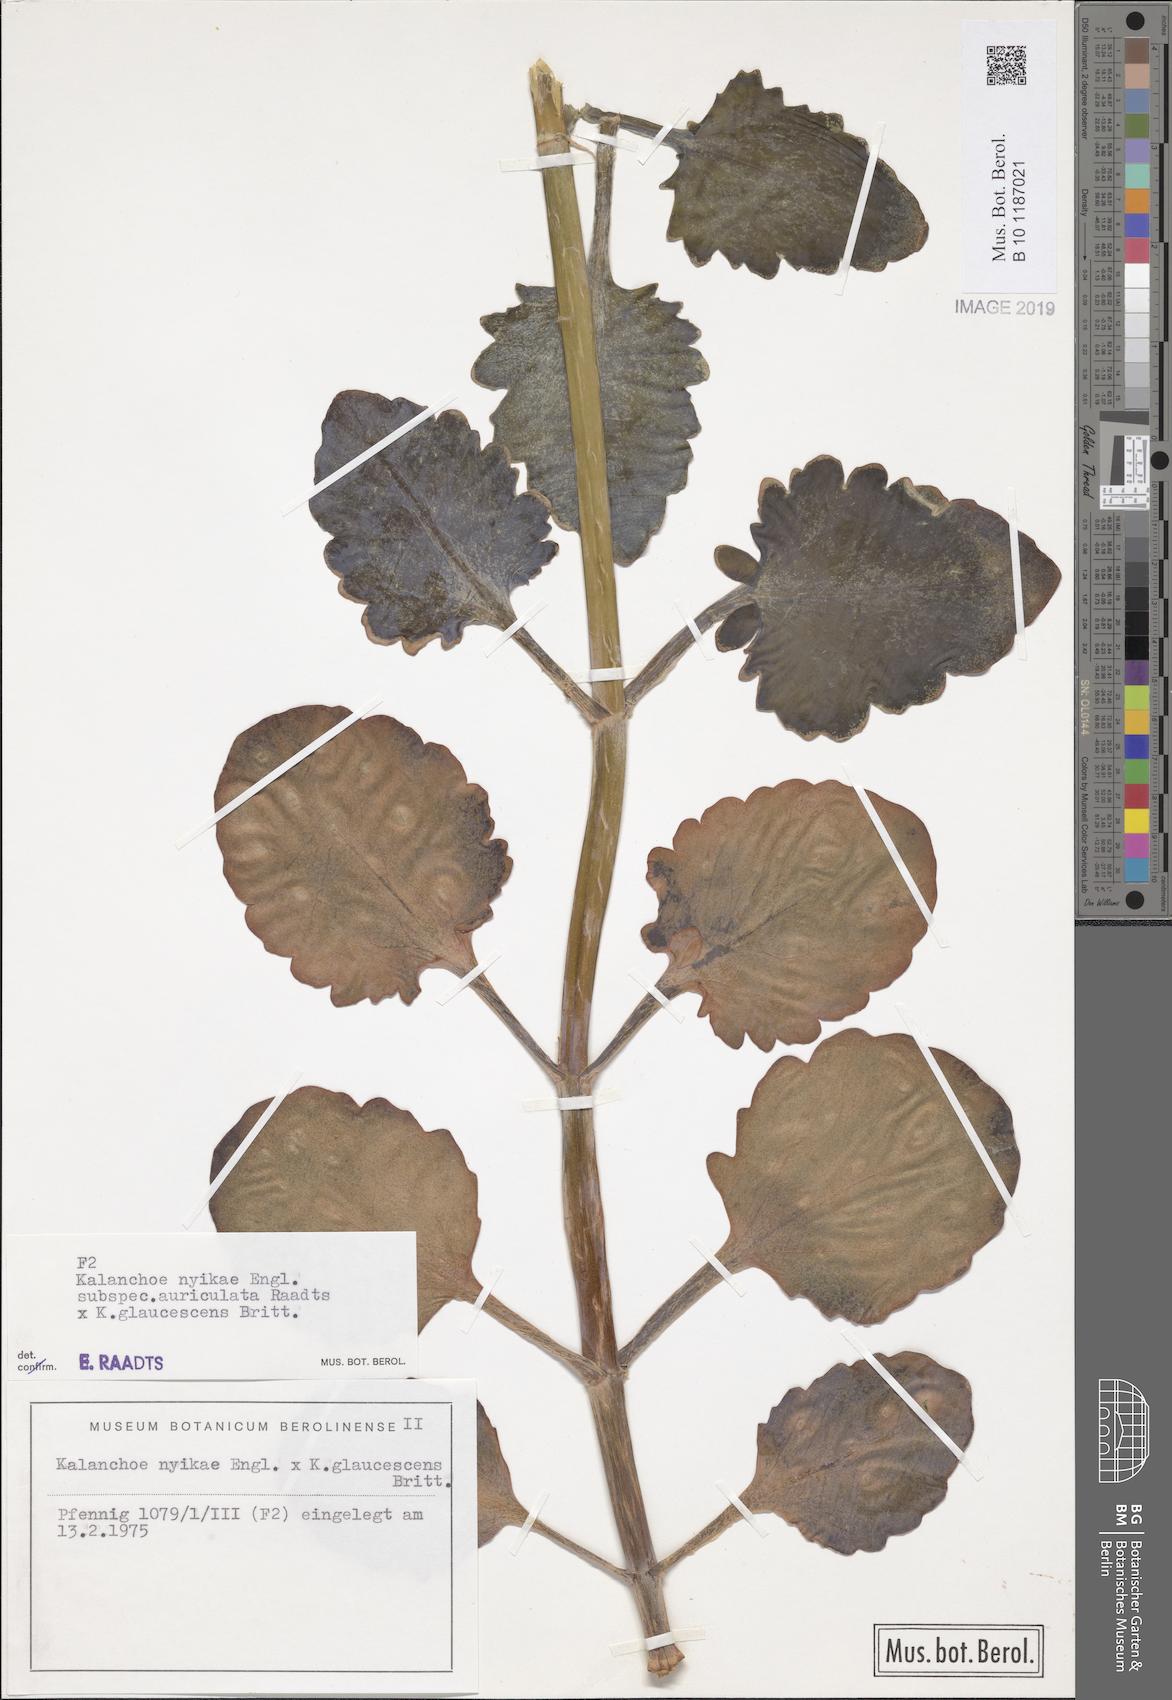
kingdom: Plantae
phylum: Tracheophyta
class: Magnoliopsida
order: Saxifragales
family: Crassulaceae
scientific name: Crassulaceae
